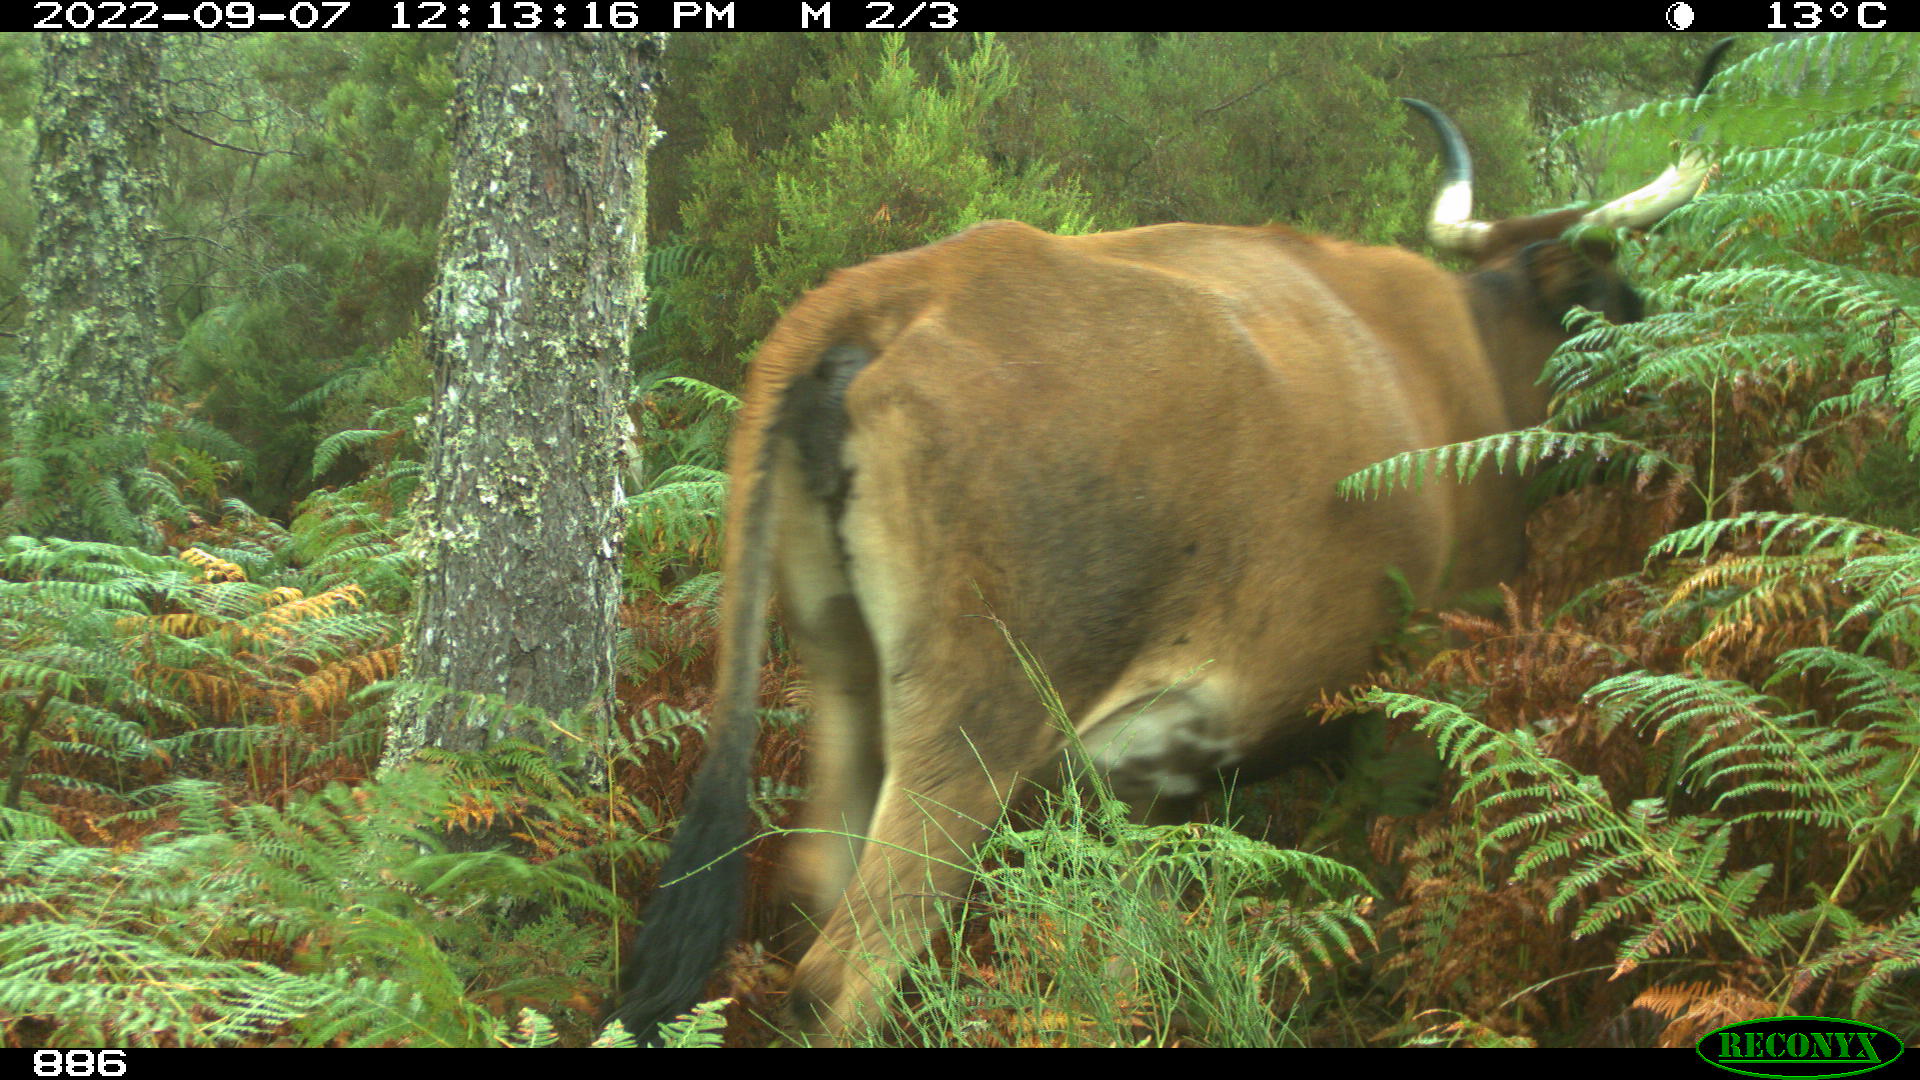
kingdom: Animalia
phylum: Chordata
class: Mammalia
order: Artiodactyla
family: Bovidae
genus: Bos
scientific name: Bos taurus
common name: Domesticated cattle
